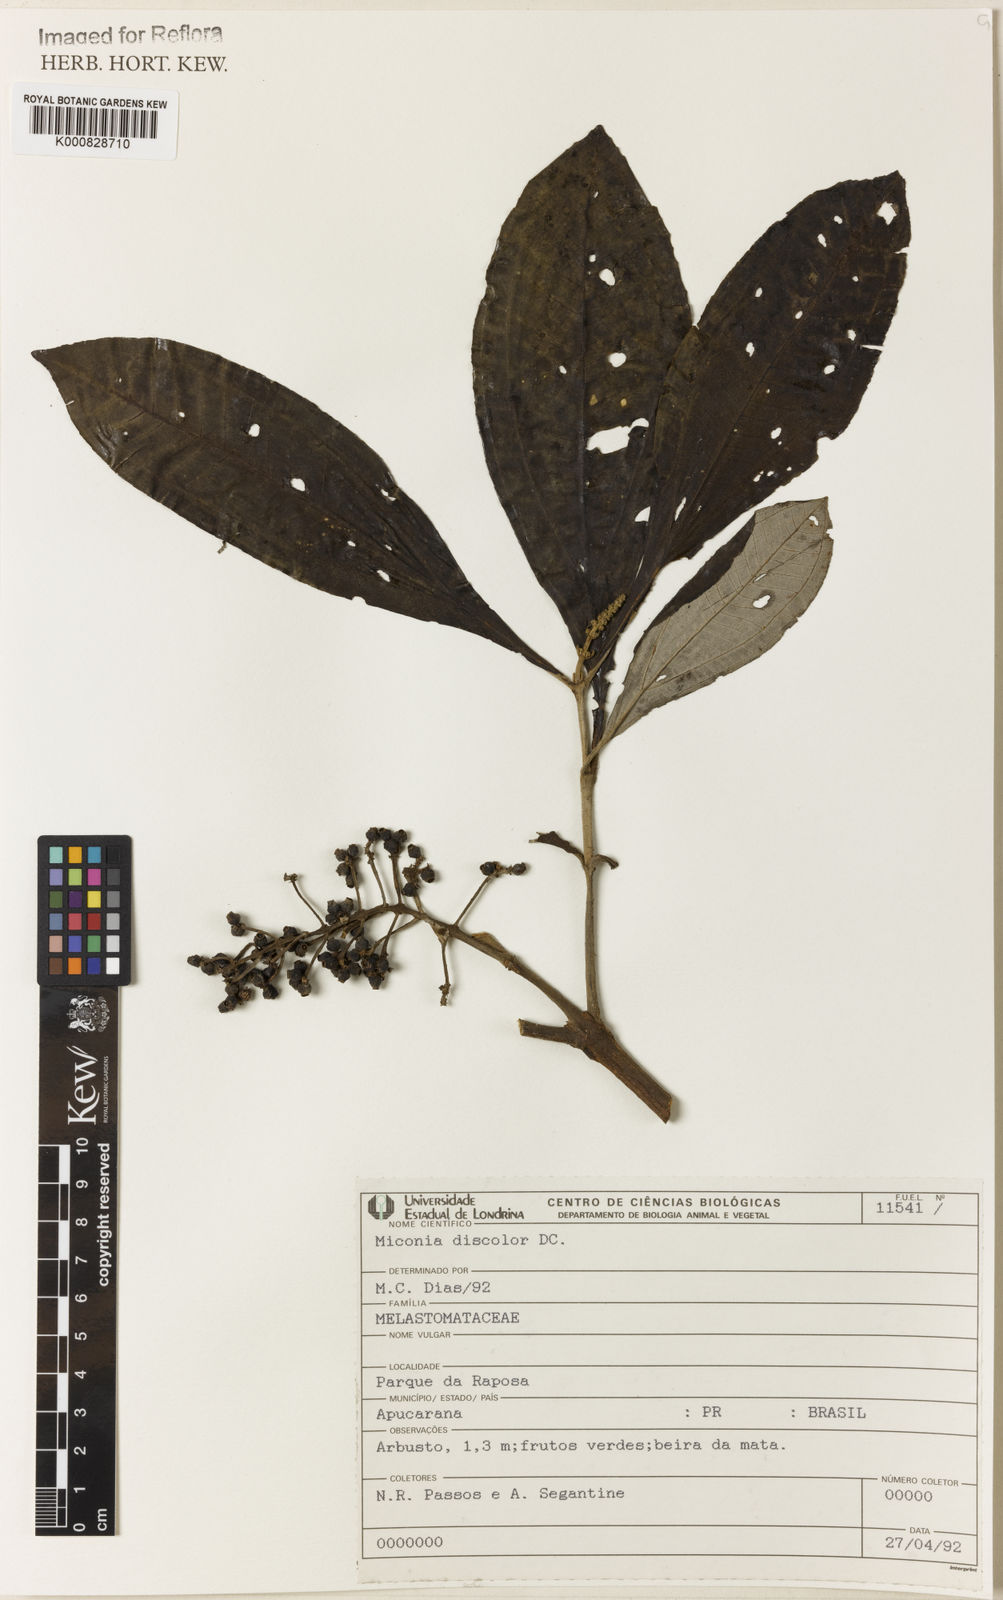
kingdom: Plantae
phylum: Tracheophyta
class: Magnoliopsida
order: Myrtales
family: Melastomataceae
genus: Miconia
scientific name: Miconia discolor
